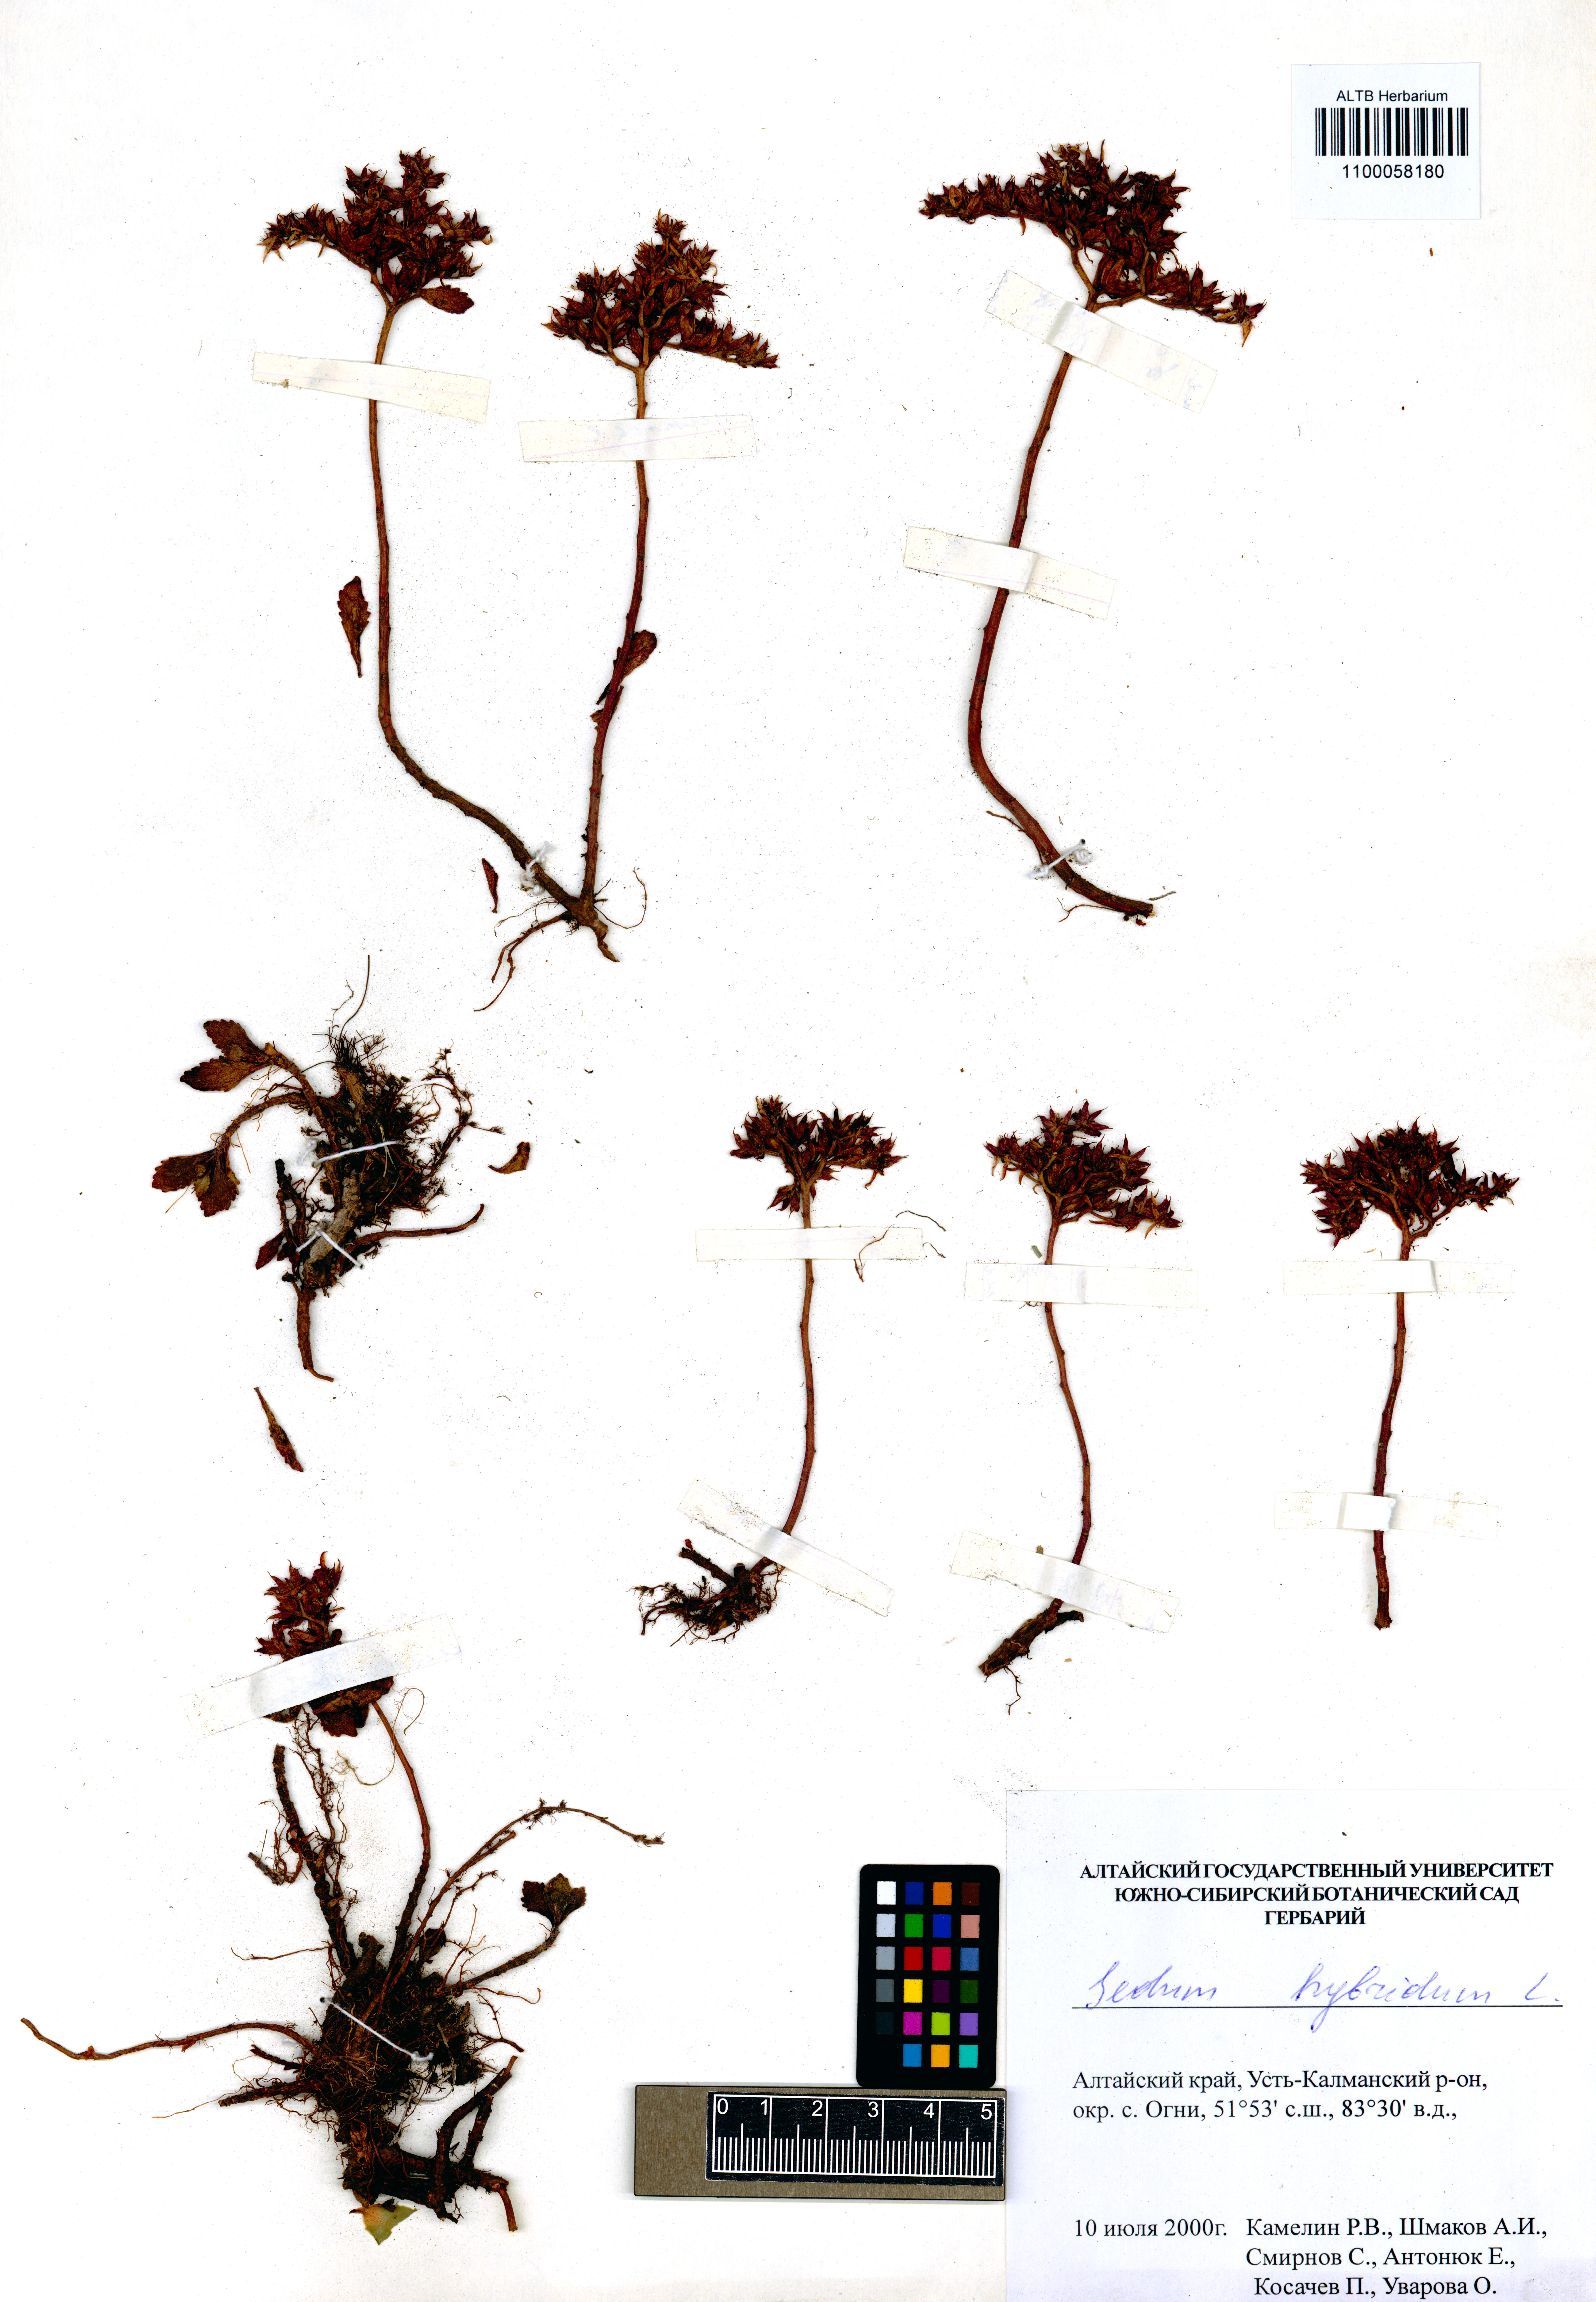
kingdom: Plantae
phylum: Tracheophyta
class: Magnoliopsida
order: Saxifragales
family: Crassulaceae
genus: Phedimus
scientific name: Phedimus hybridus
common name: Hybrid stonecrop
